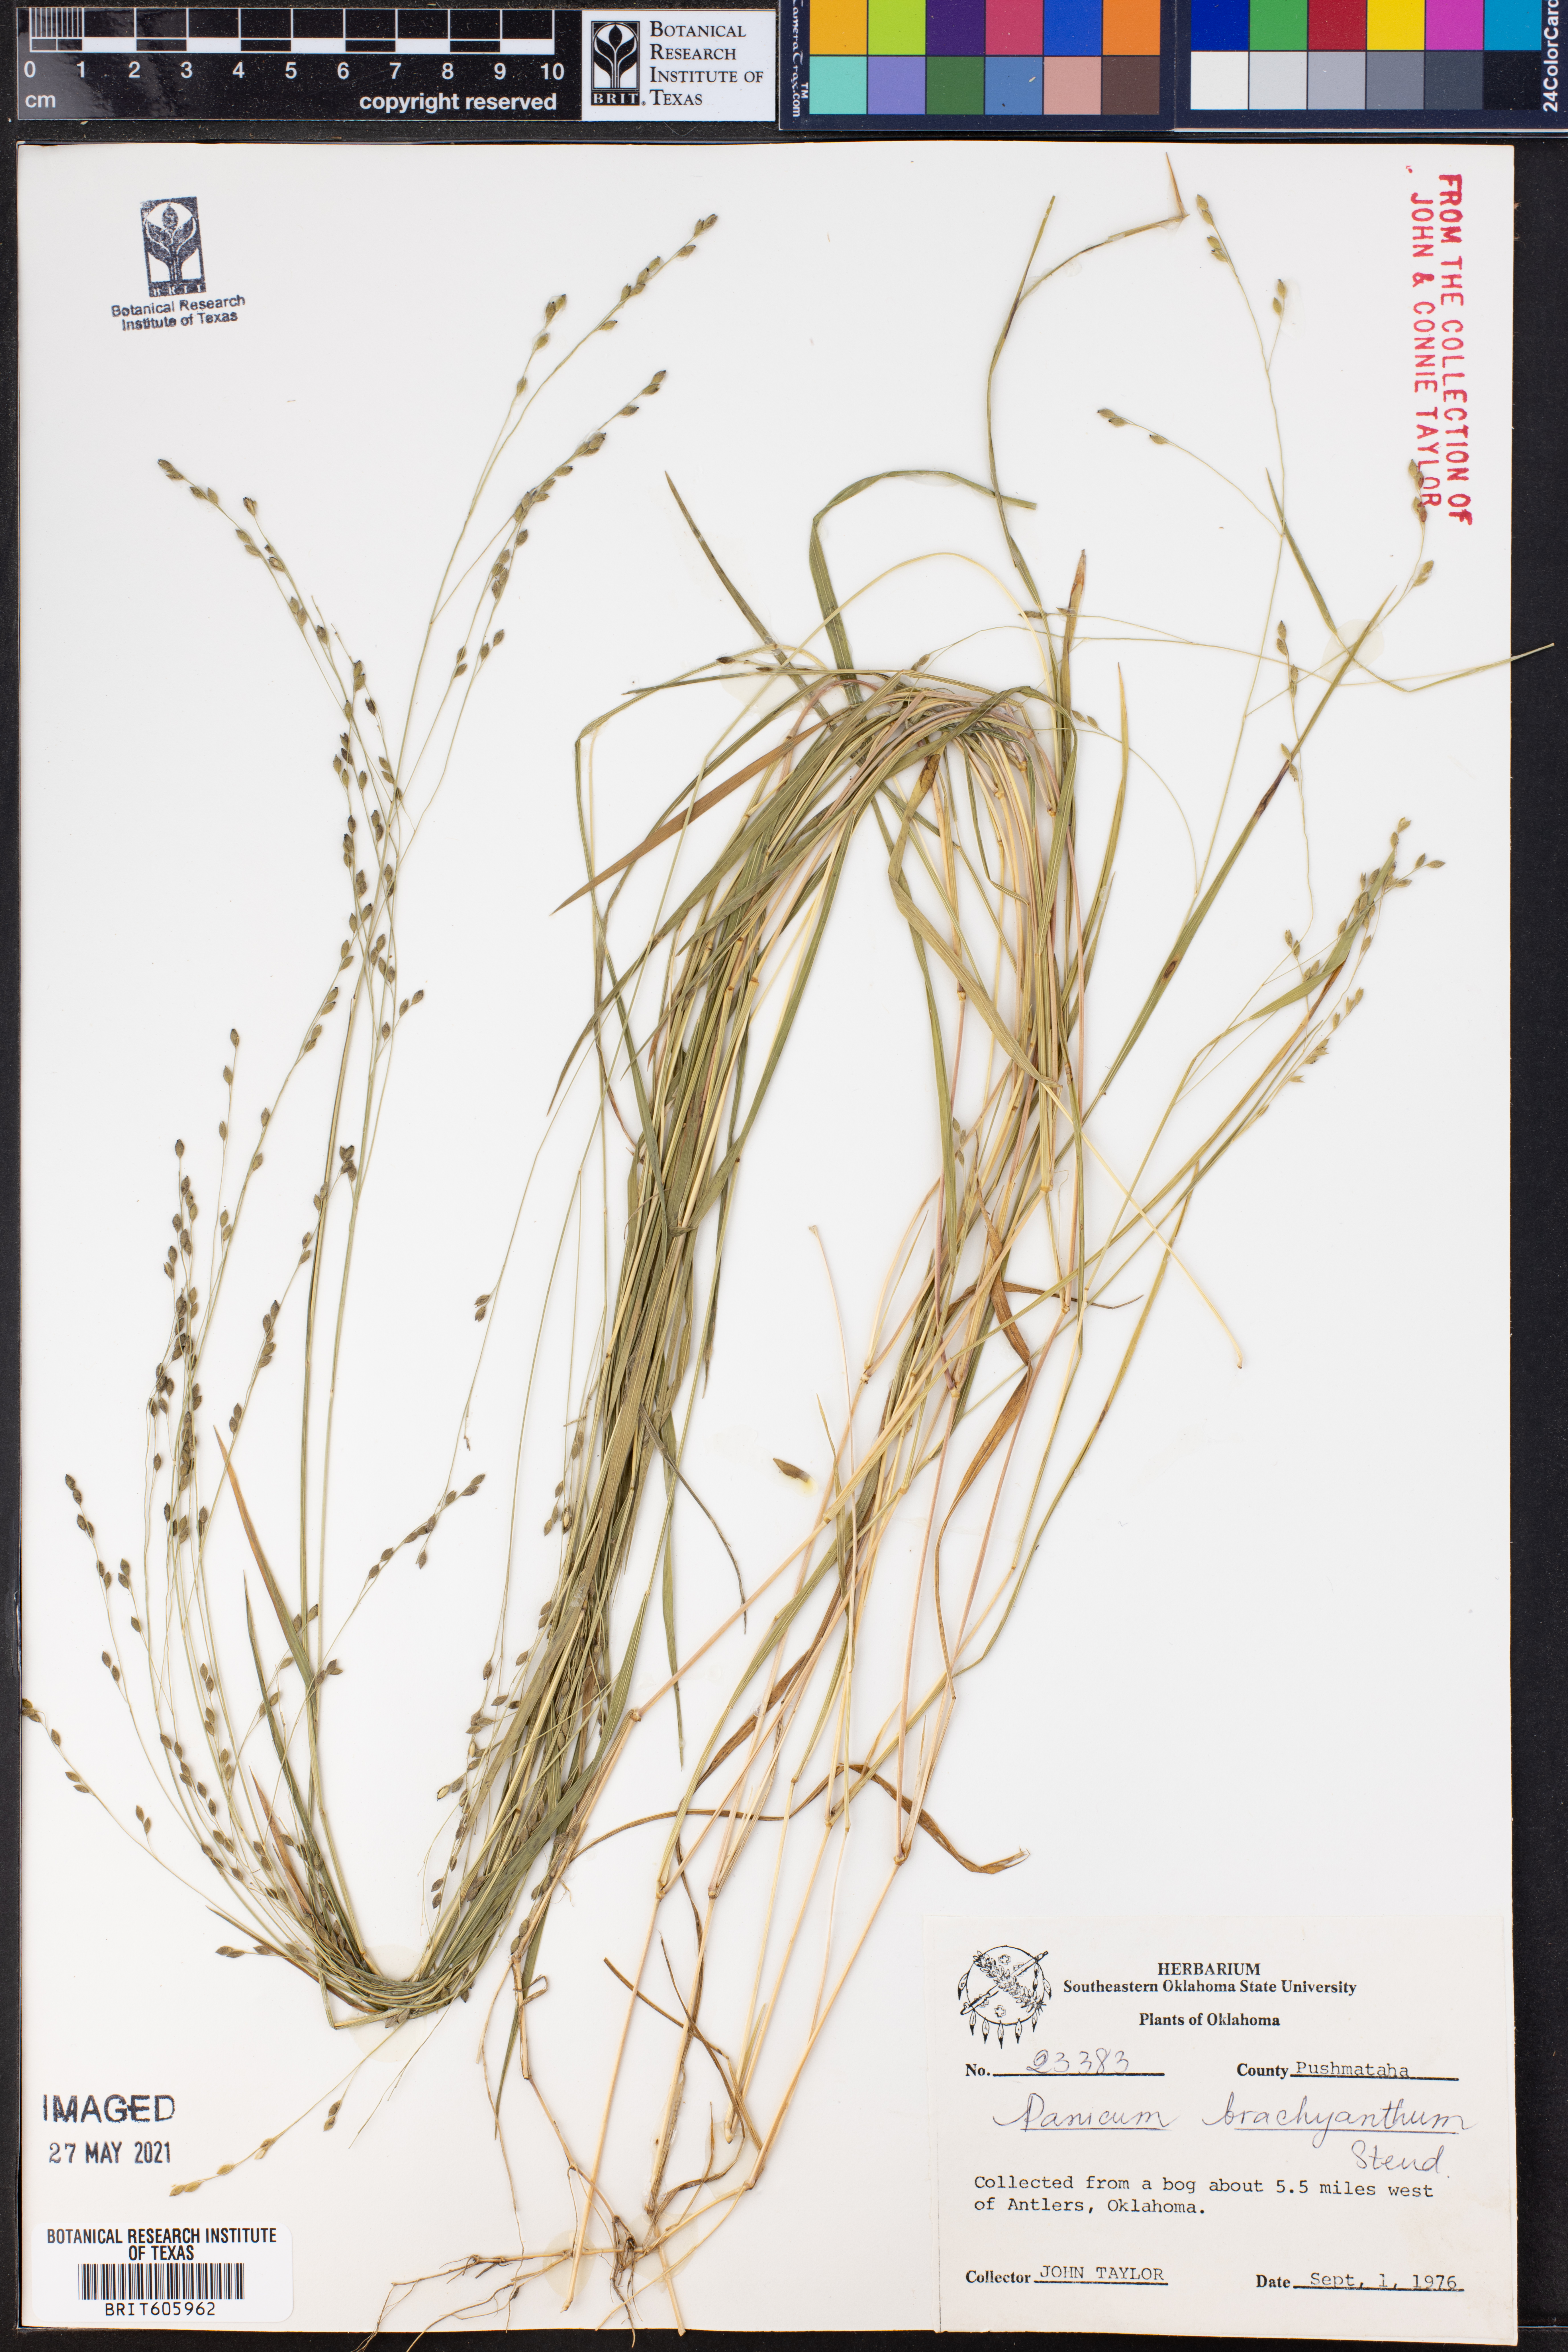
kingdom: Plantae
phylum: Tracheophyta
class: Liliopsida
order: Poales
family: Poaceae
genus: Kellochloa
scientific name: Kellochloa brachyantha
